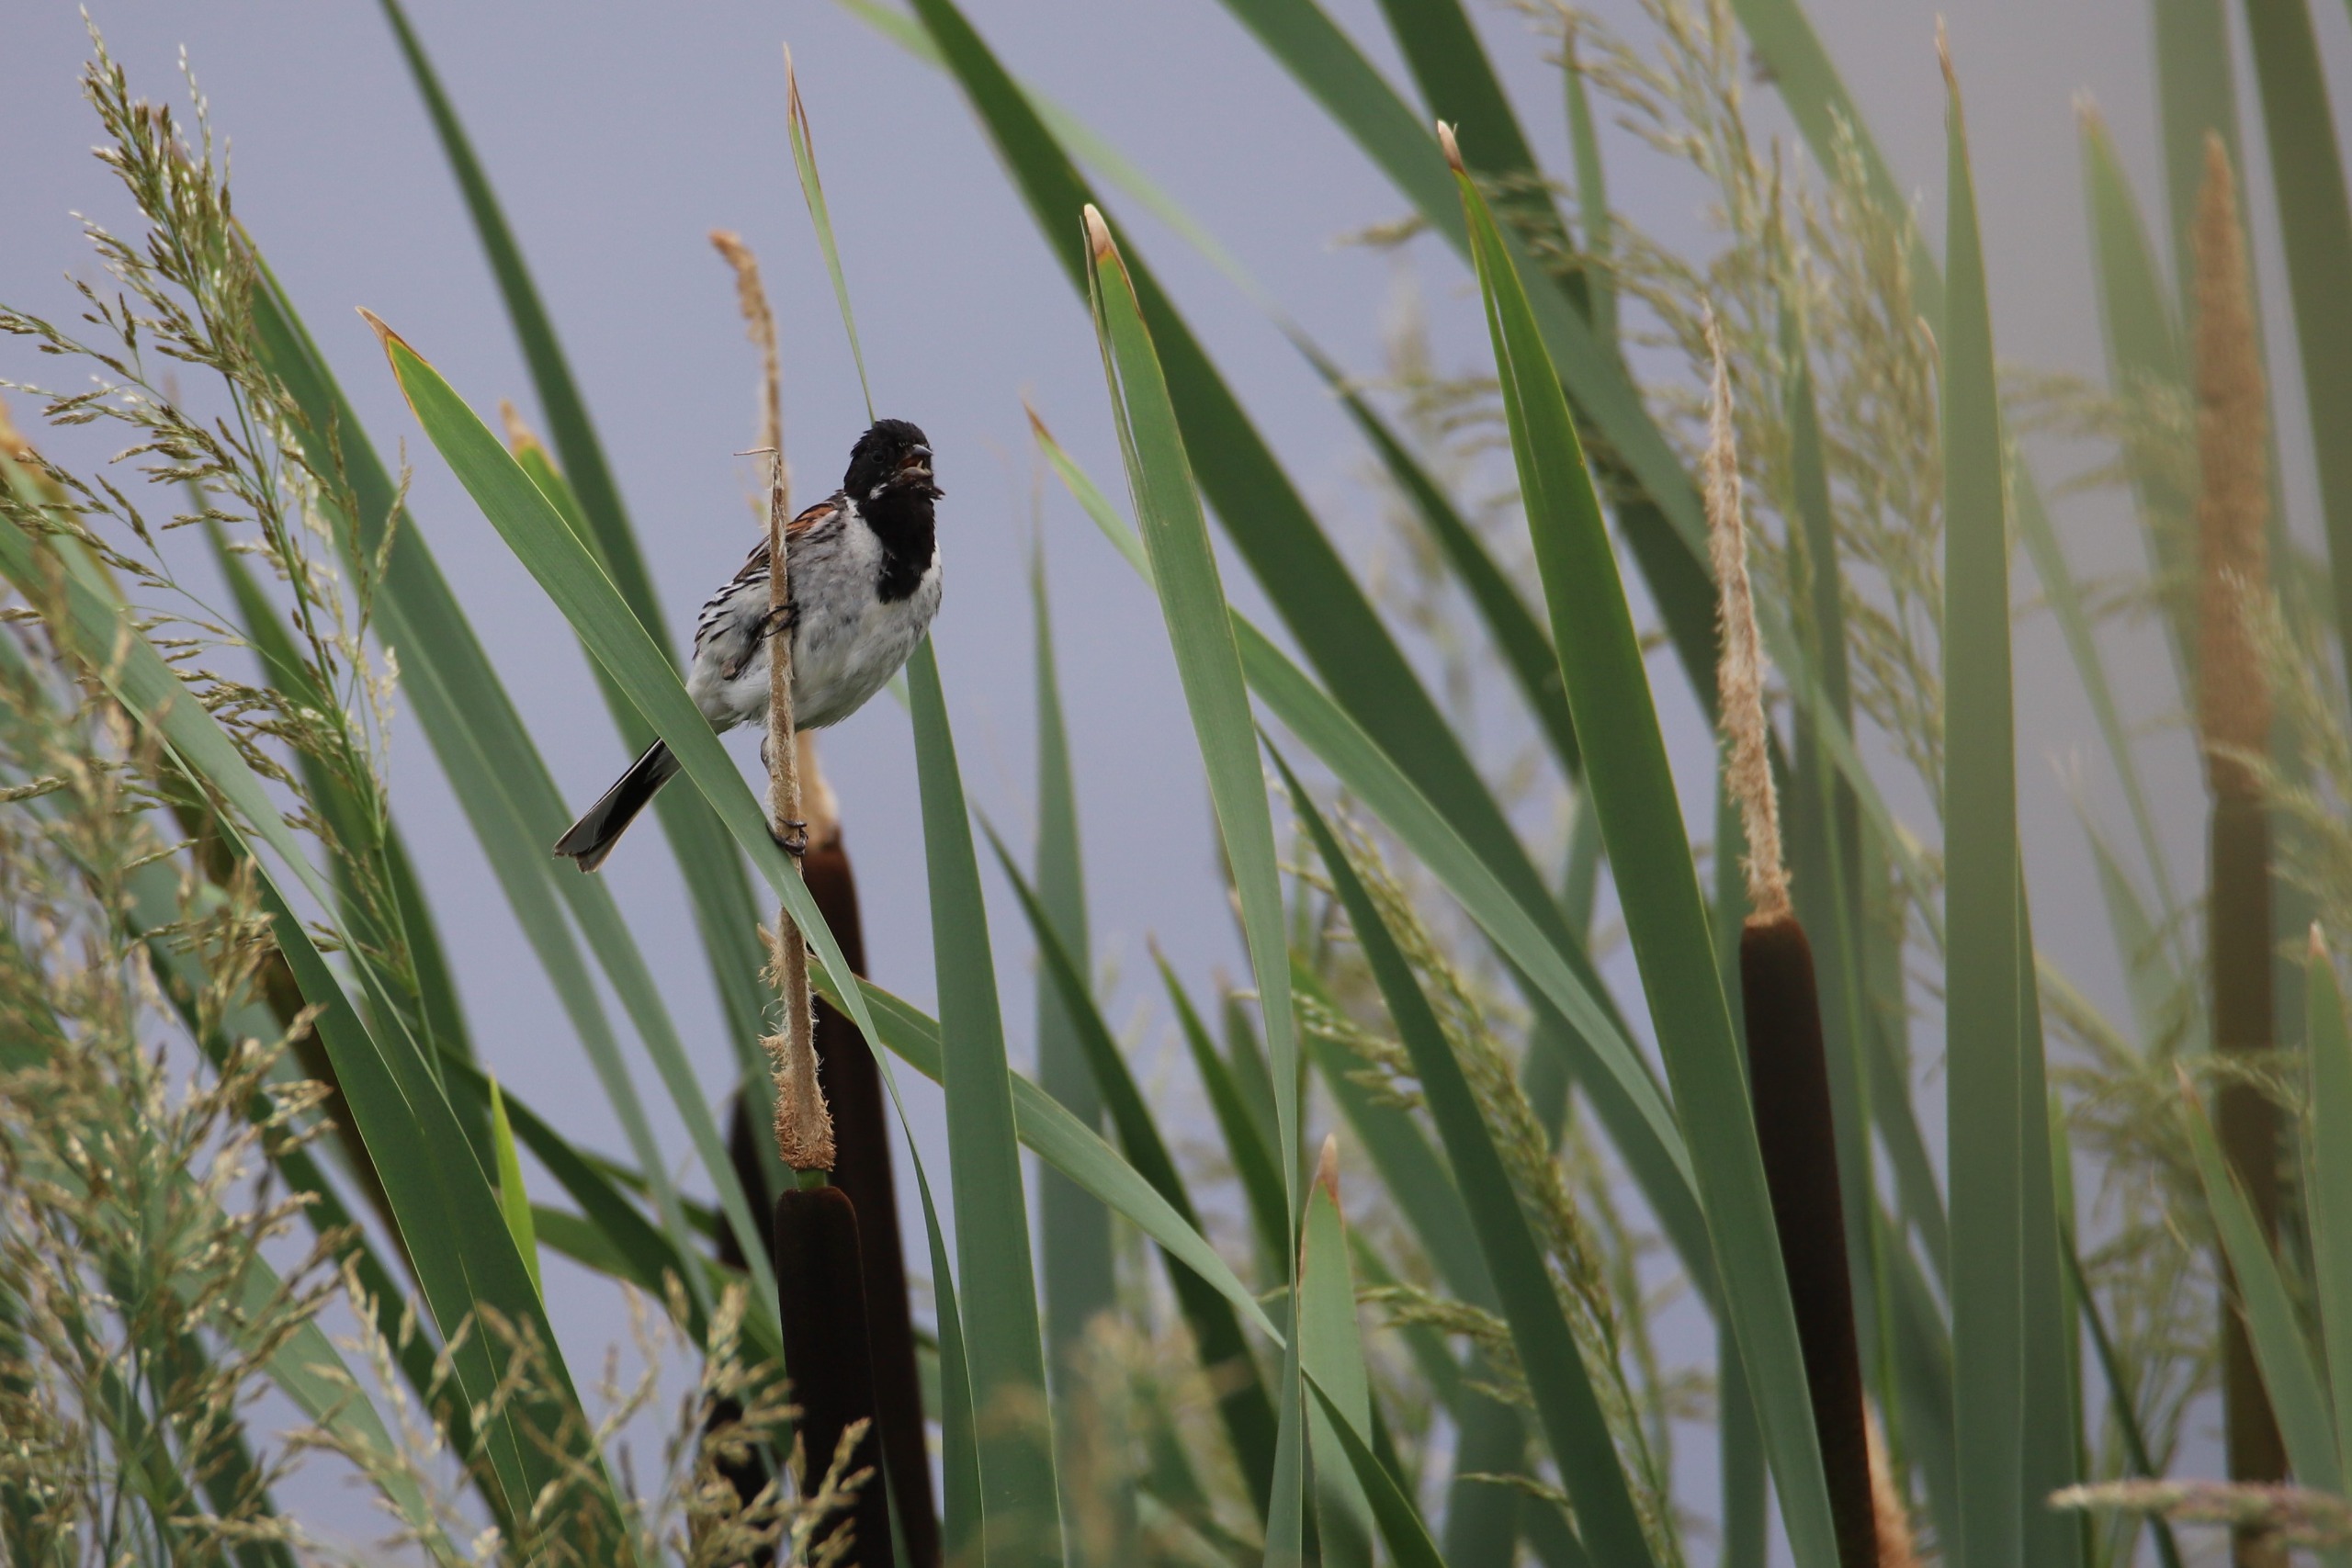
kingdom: Animalia
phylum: Chordata
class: Aves
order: Passeriformes
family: Emberizidae
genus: Emberiza
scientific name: Emberiza schoeniclus
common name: Rørspurv
